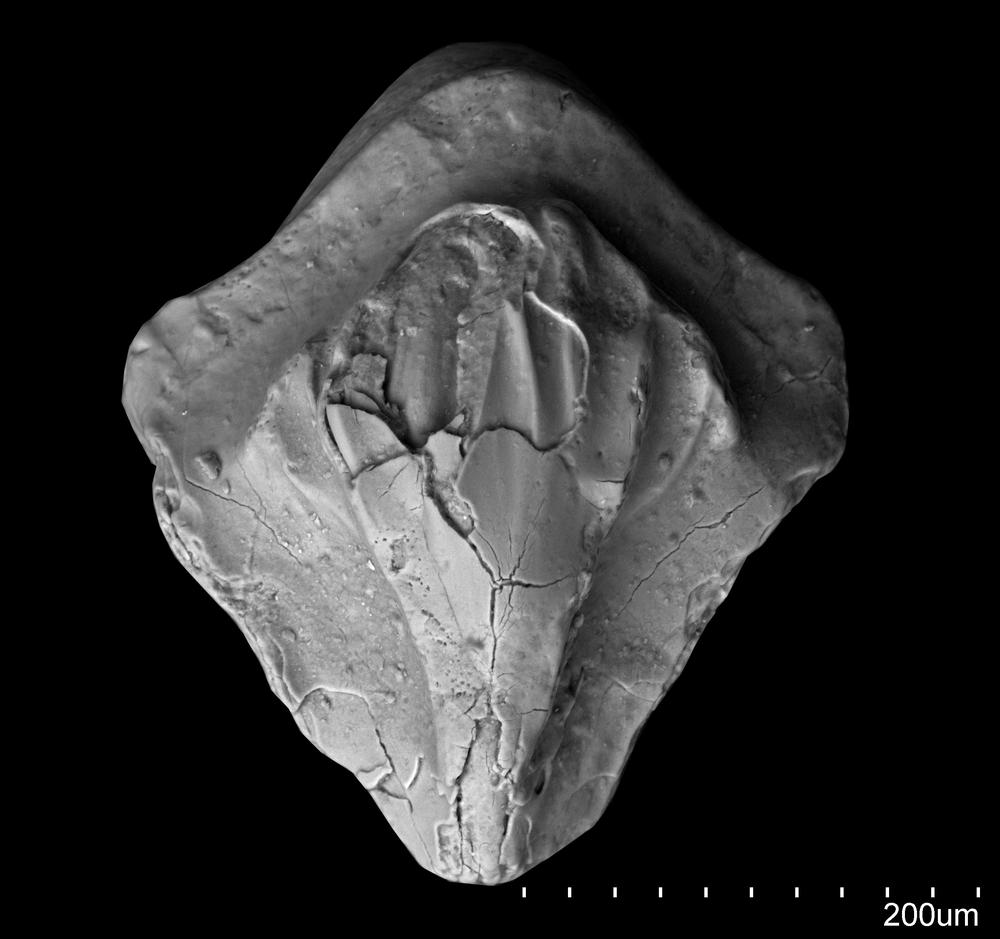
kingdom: Animalia
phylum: Chordata
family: Cheiracanthidae
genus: Ginkgolepis
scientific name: Ginkgolepis
